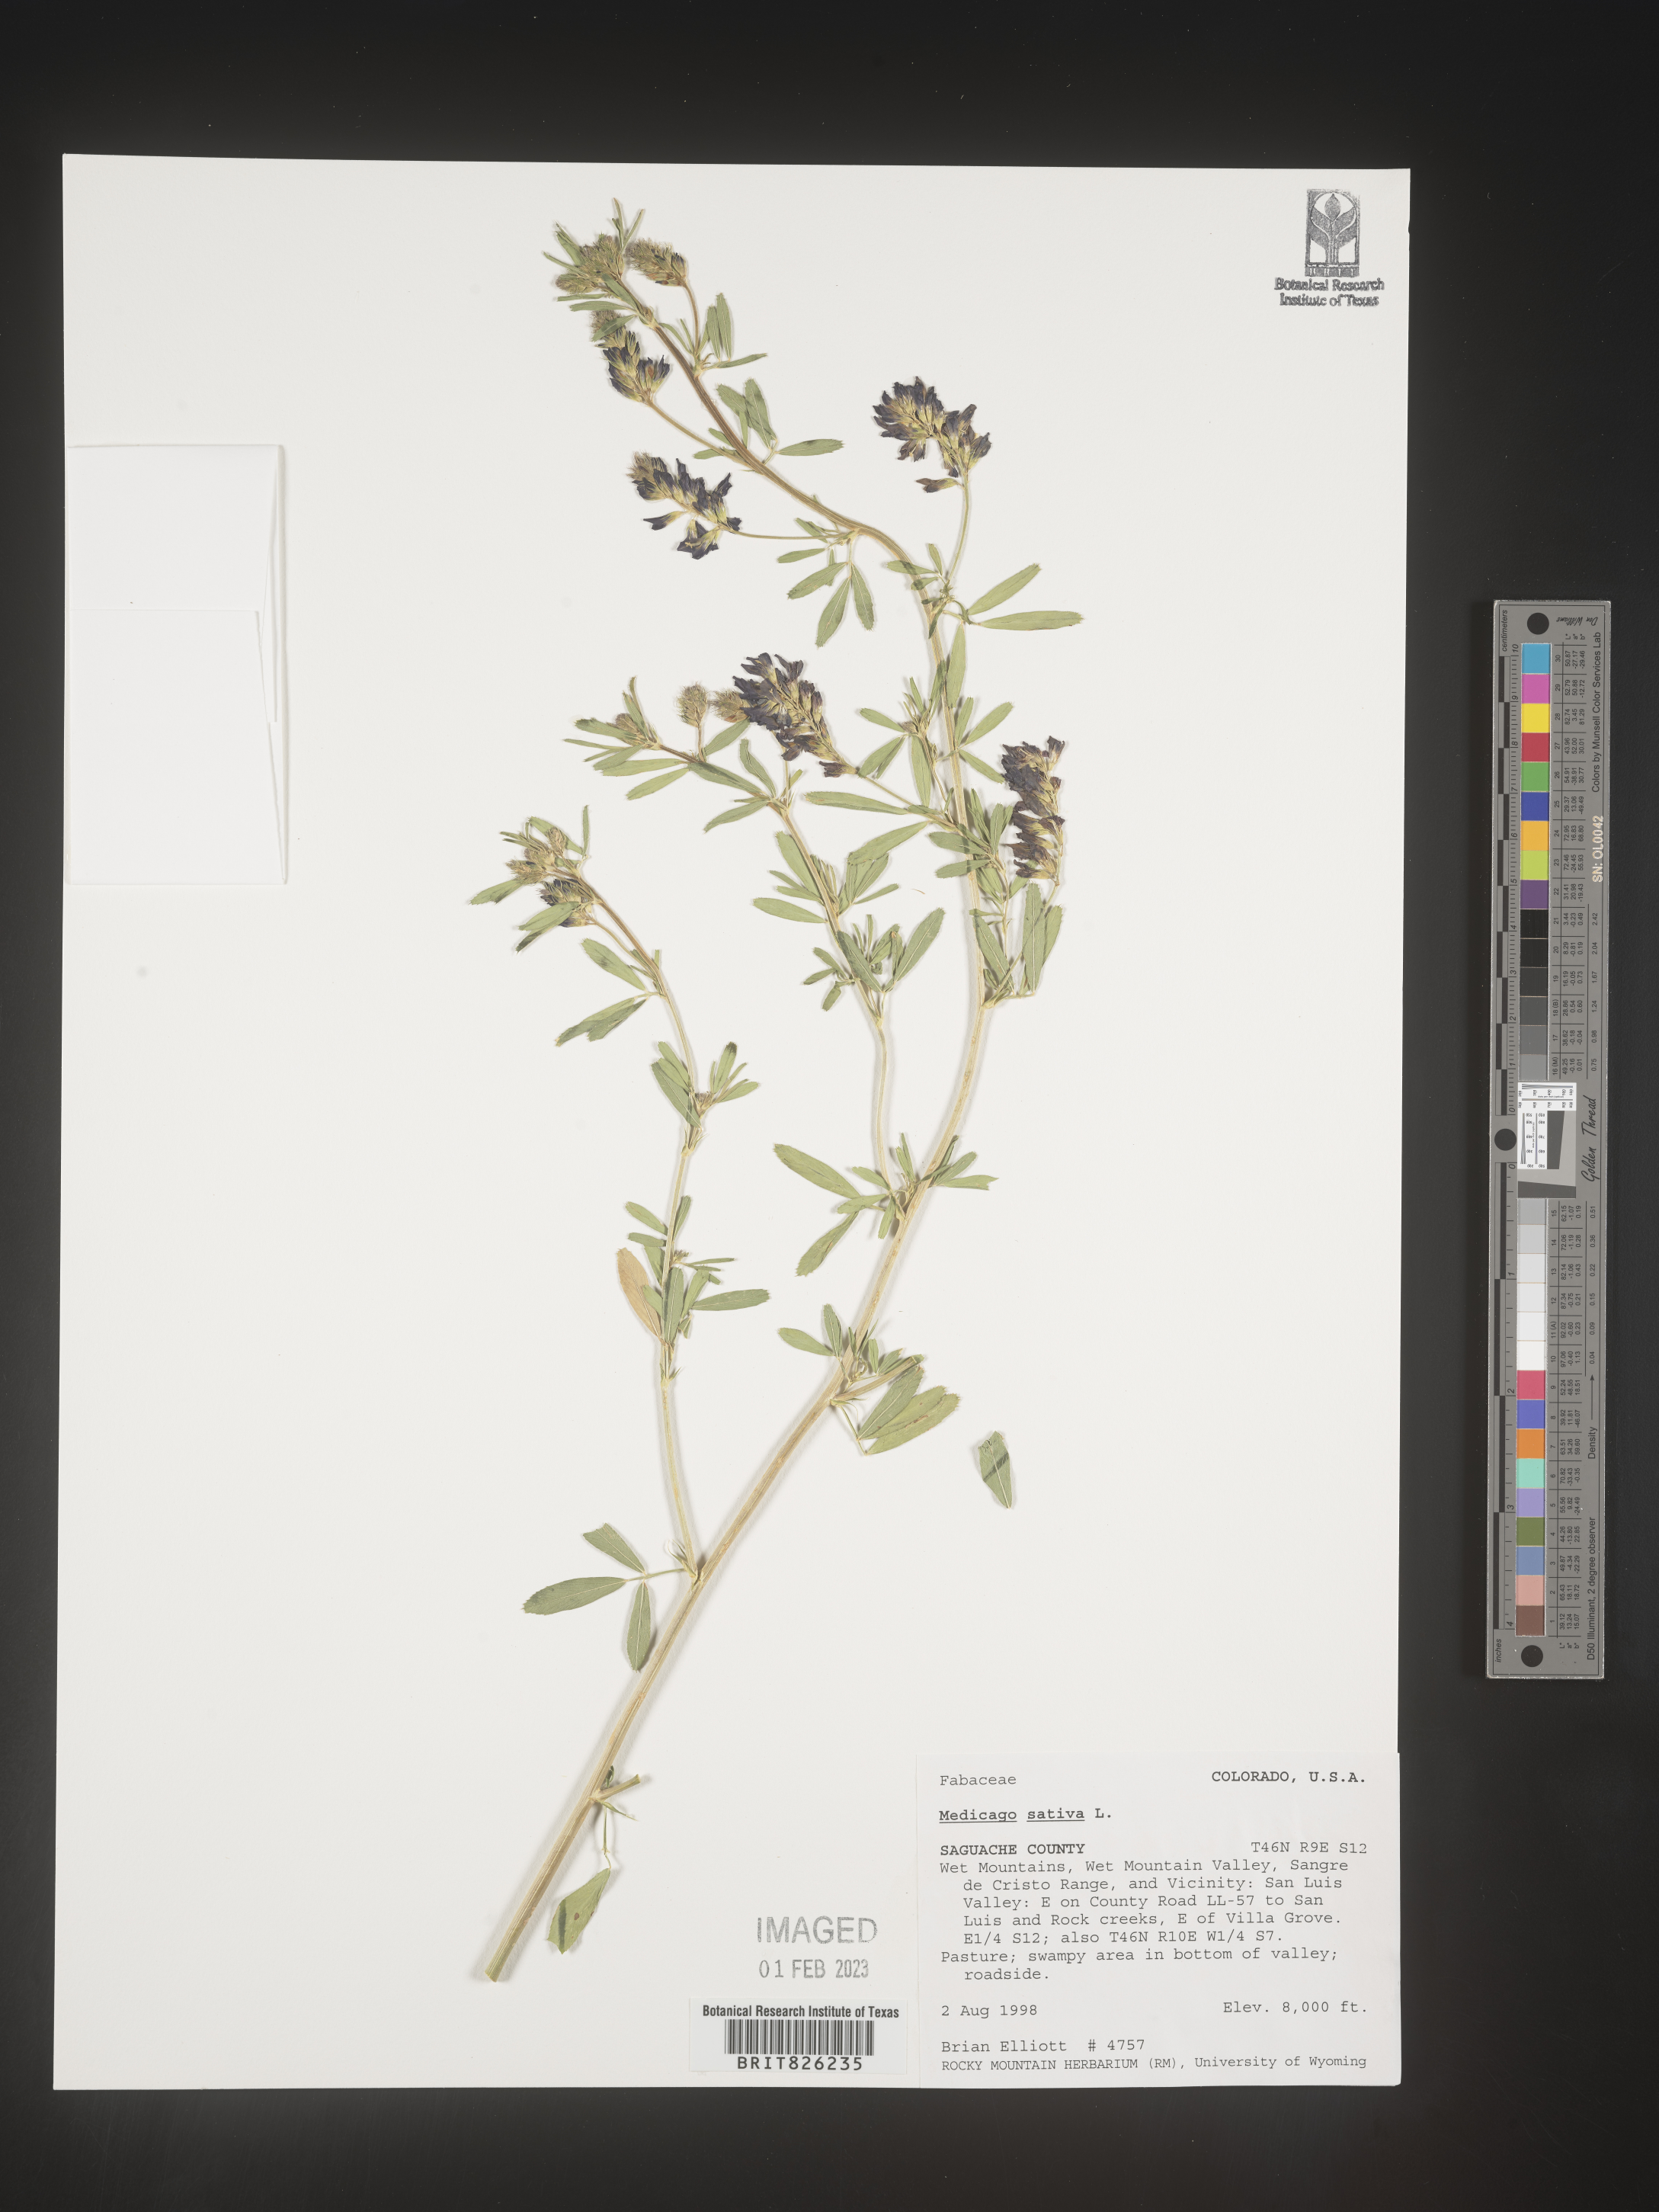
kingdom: Plantae
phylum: Tracheophyta
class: Magnoliopsida
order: Fabales
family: Fabaceae
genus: Medicago
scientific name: Medicago sativa
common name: Alfalfa
